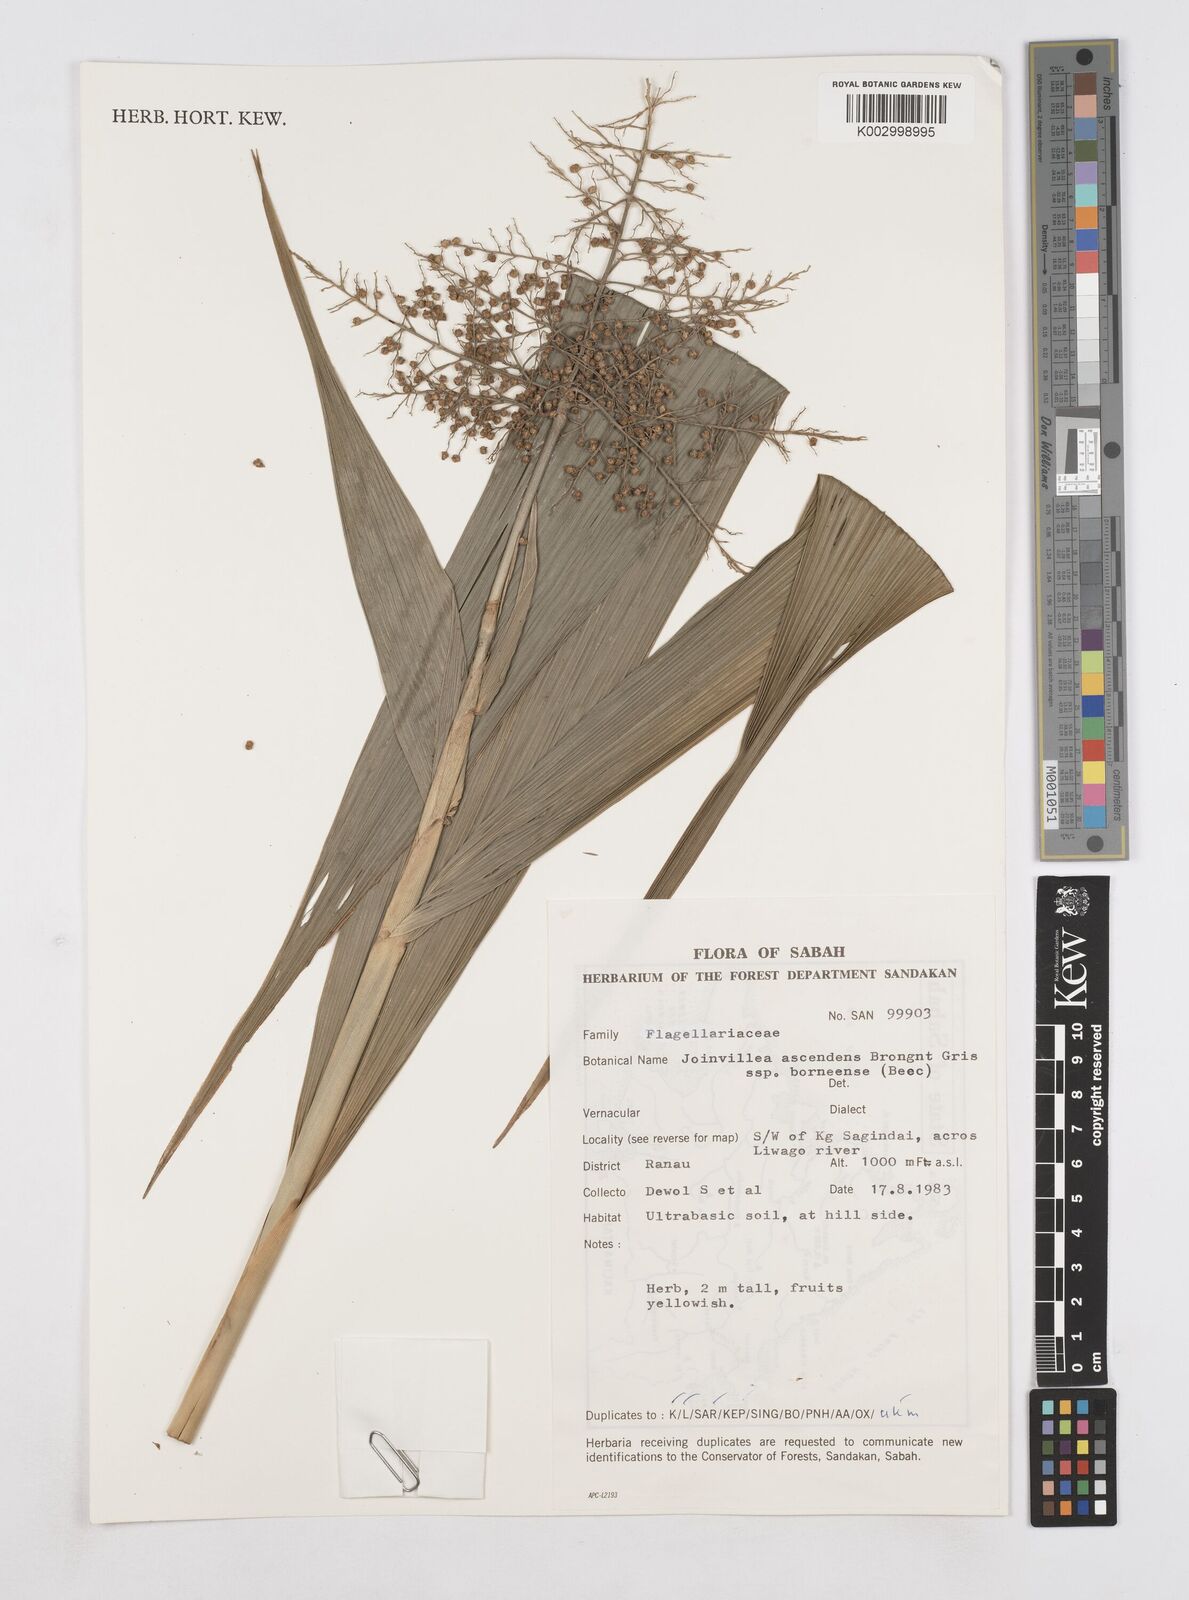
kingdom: Plantae
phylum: Tracheophyta
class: Liliopsida
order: Poales
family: Joinvilleaceae
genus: Joinvillea
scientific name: Joinvillea borneensis
